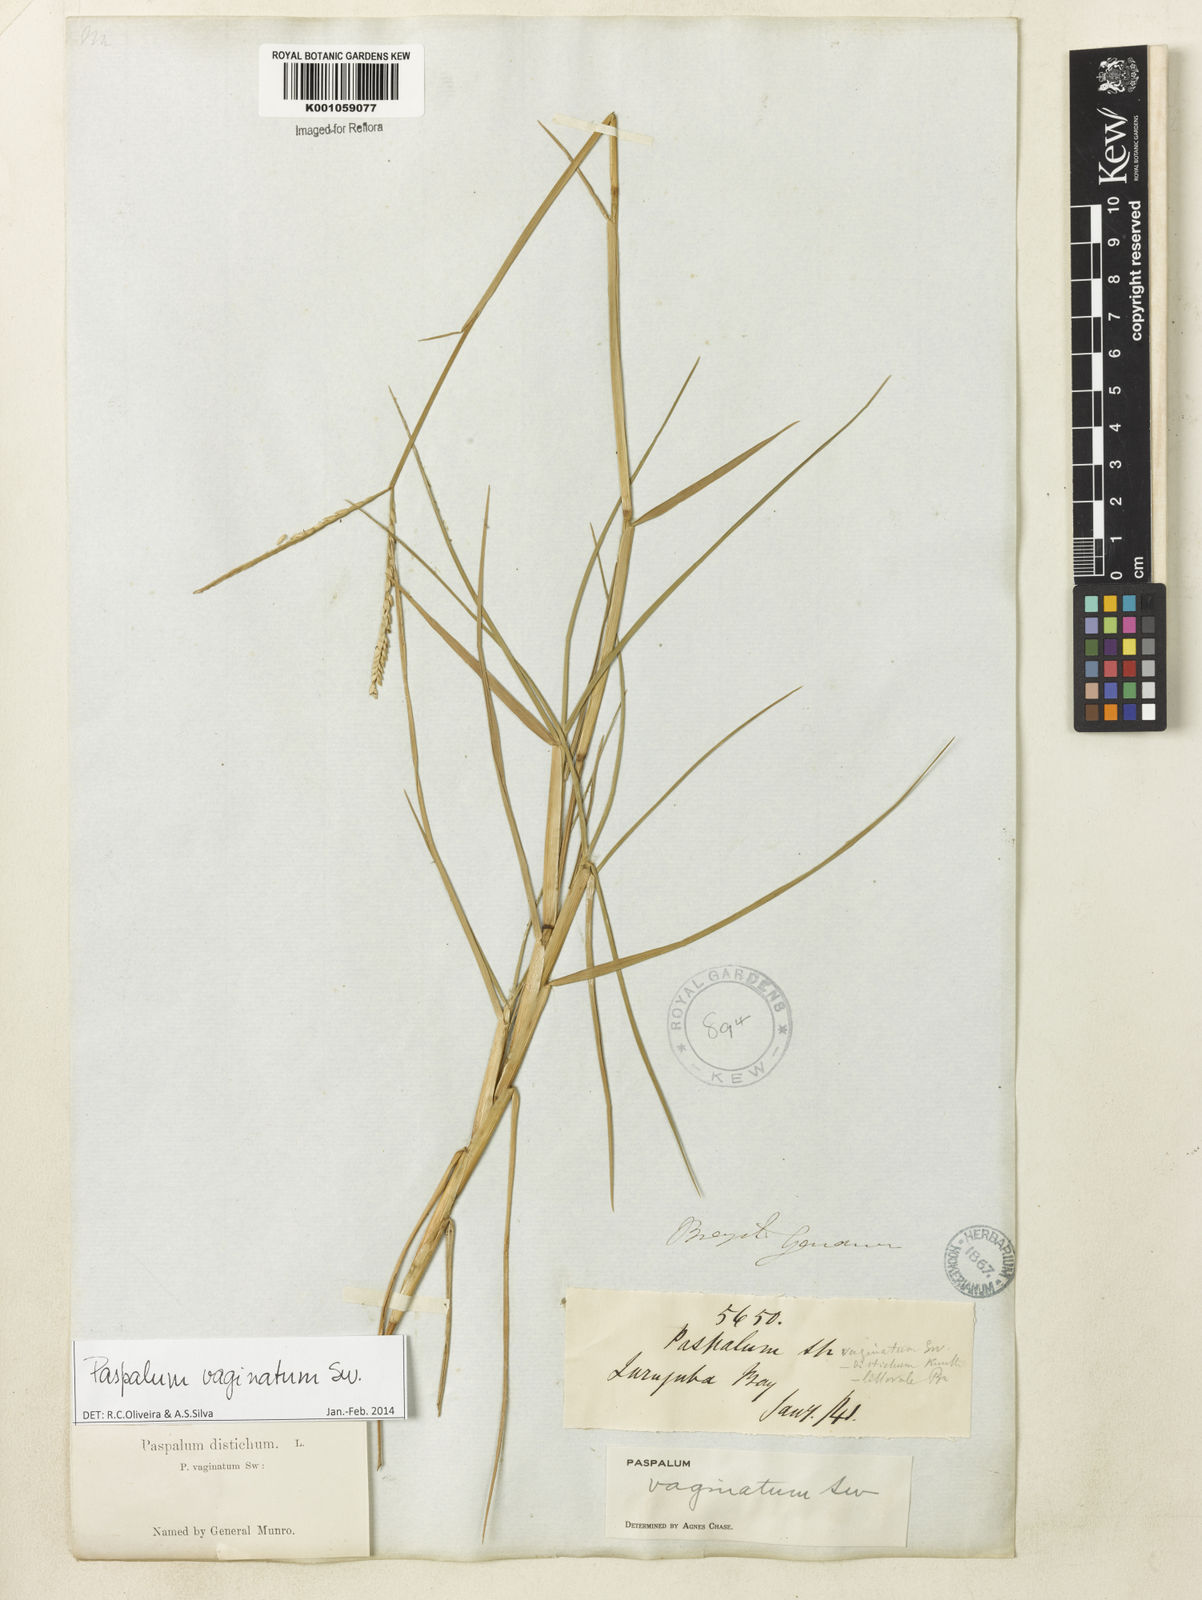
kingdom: Plantae
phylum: Tracheophyta
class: Liliopsida
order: Poales
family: Poaceae
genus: Paspalum
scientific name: Paspalum vaginatum
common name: Seashore paspalum
